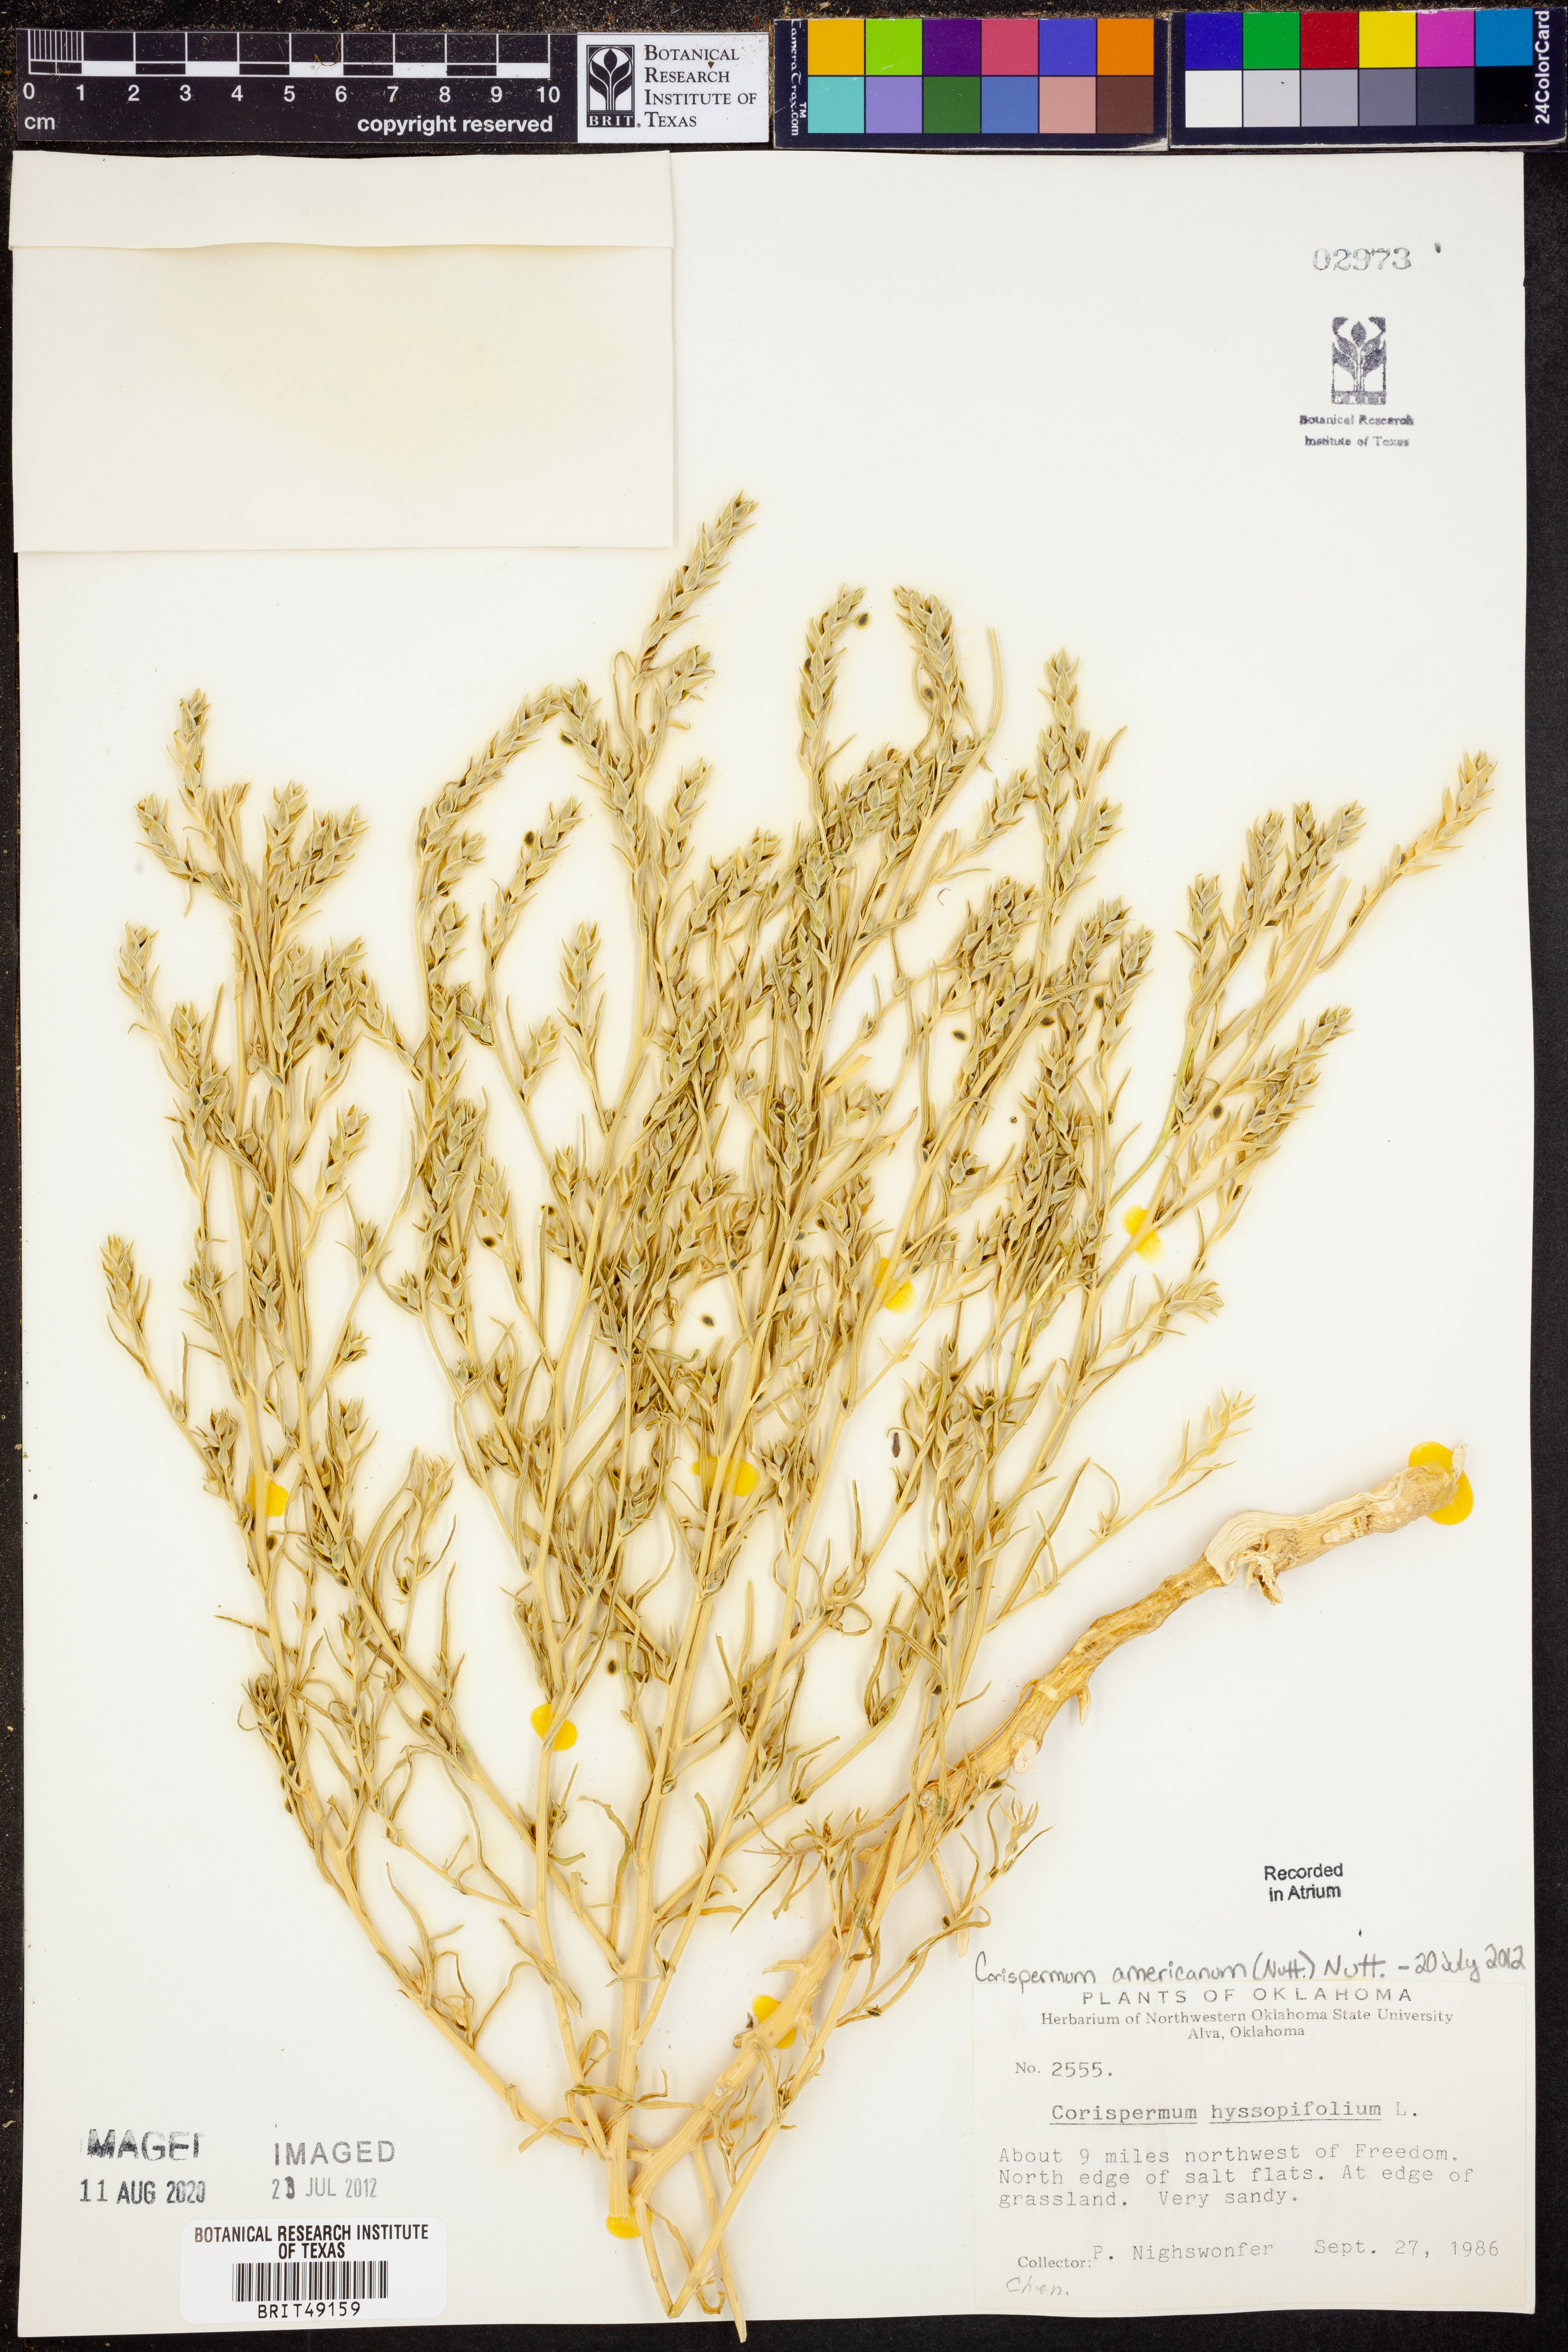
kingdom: Plantae
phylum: Tracheophyta
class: Magnoliopsida
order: Caryophyllales
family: Amaranthaceae
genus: Corispermum
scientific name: Corispermum americanum
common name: American bugseed
